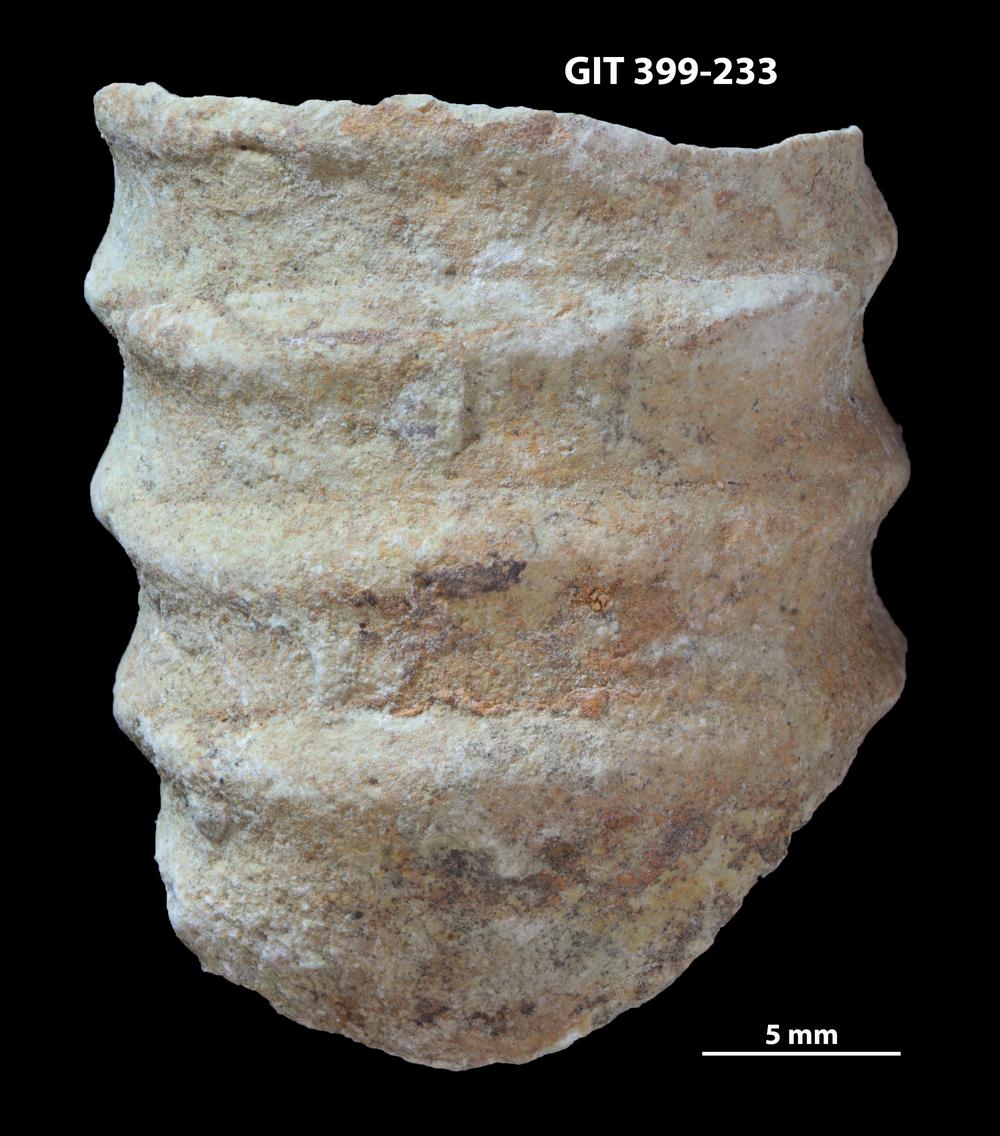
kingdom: Animalia
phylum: Mollusca
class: Cephalopoda
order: Orthocerida
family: Orthoceratidae
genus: Striatocycloceras
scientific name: Striatocycloceras
